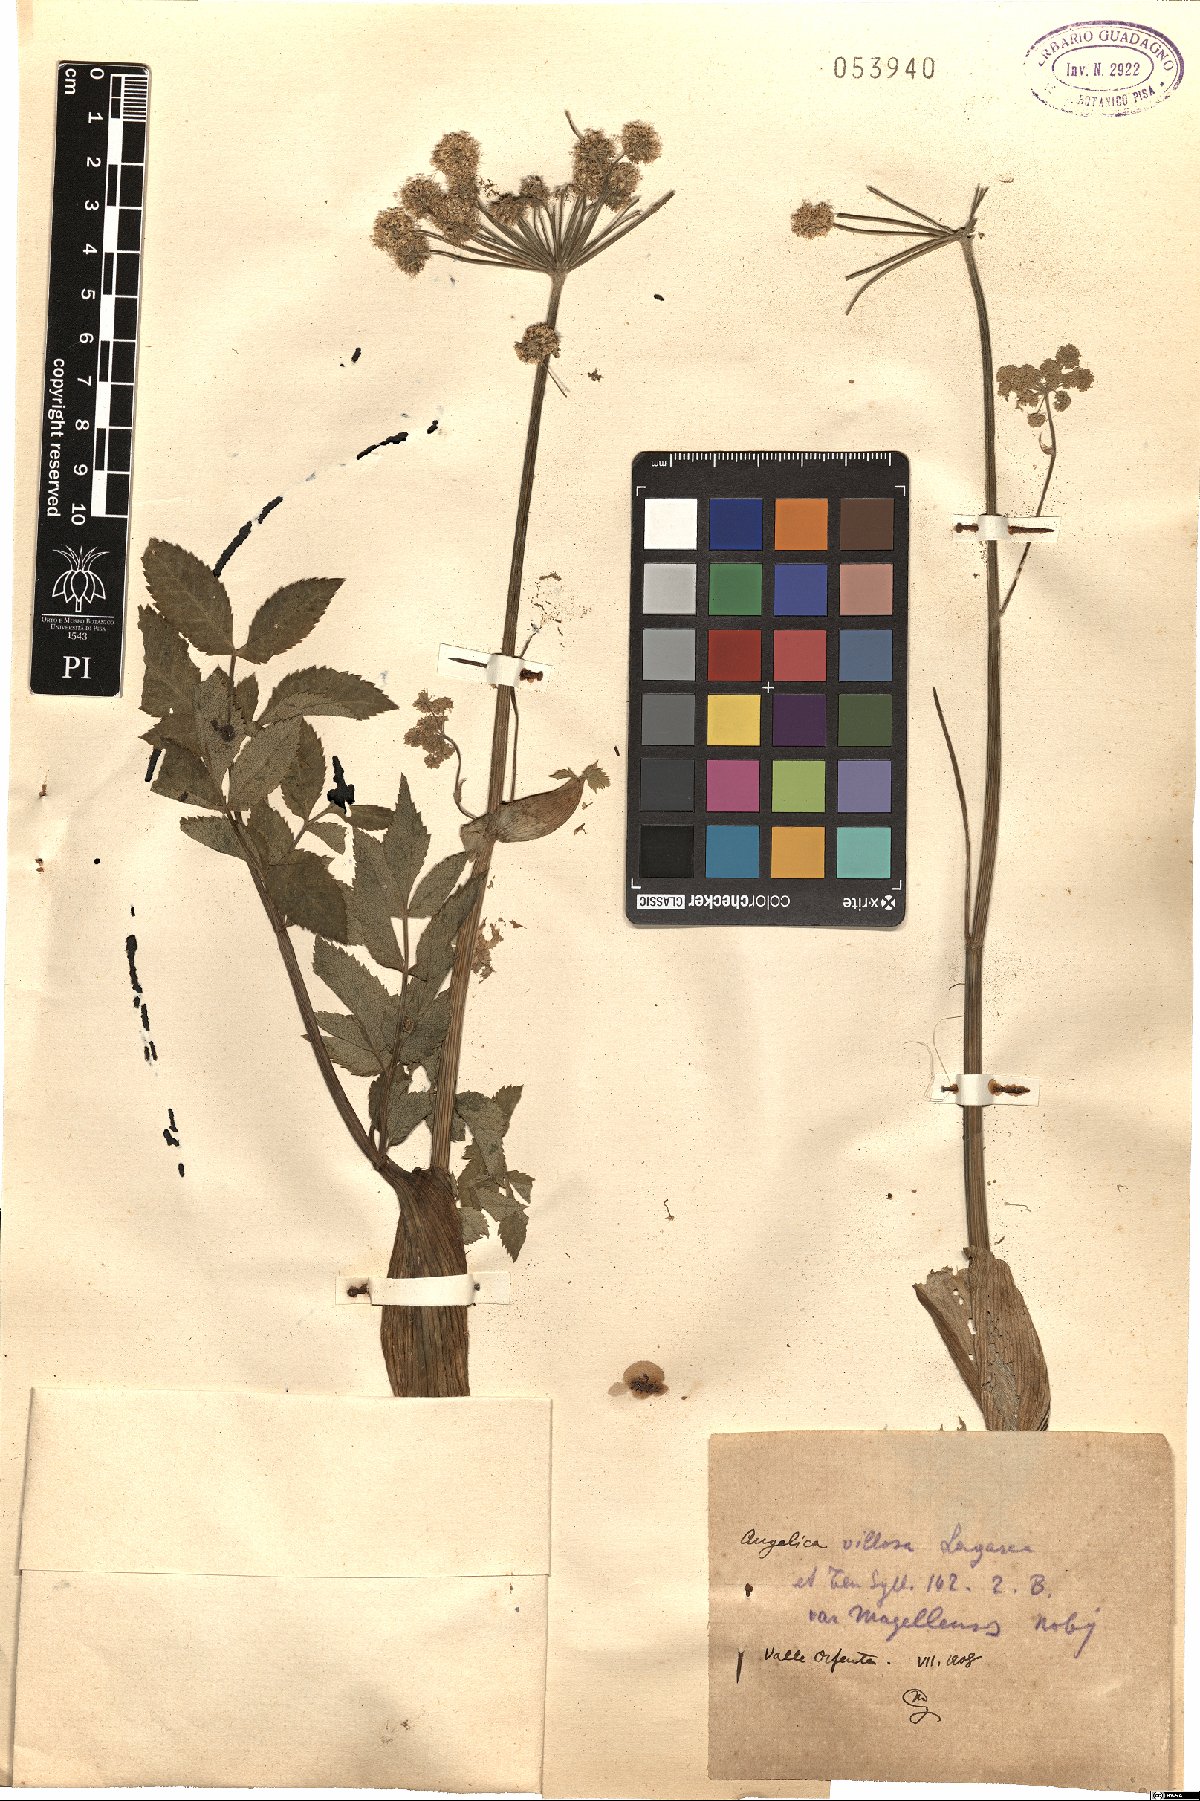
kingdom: Plantae
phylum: Tracheophyta
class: Magnoliopsida
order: Apiales
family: Apiaceae
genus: Angelica
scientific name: Angelica
